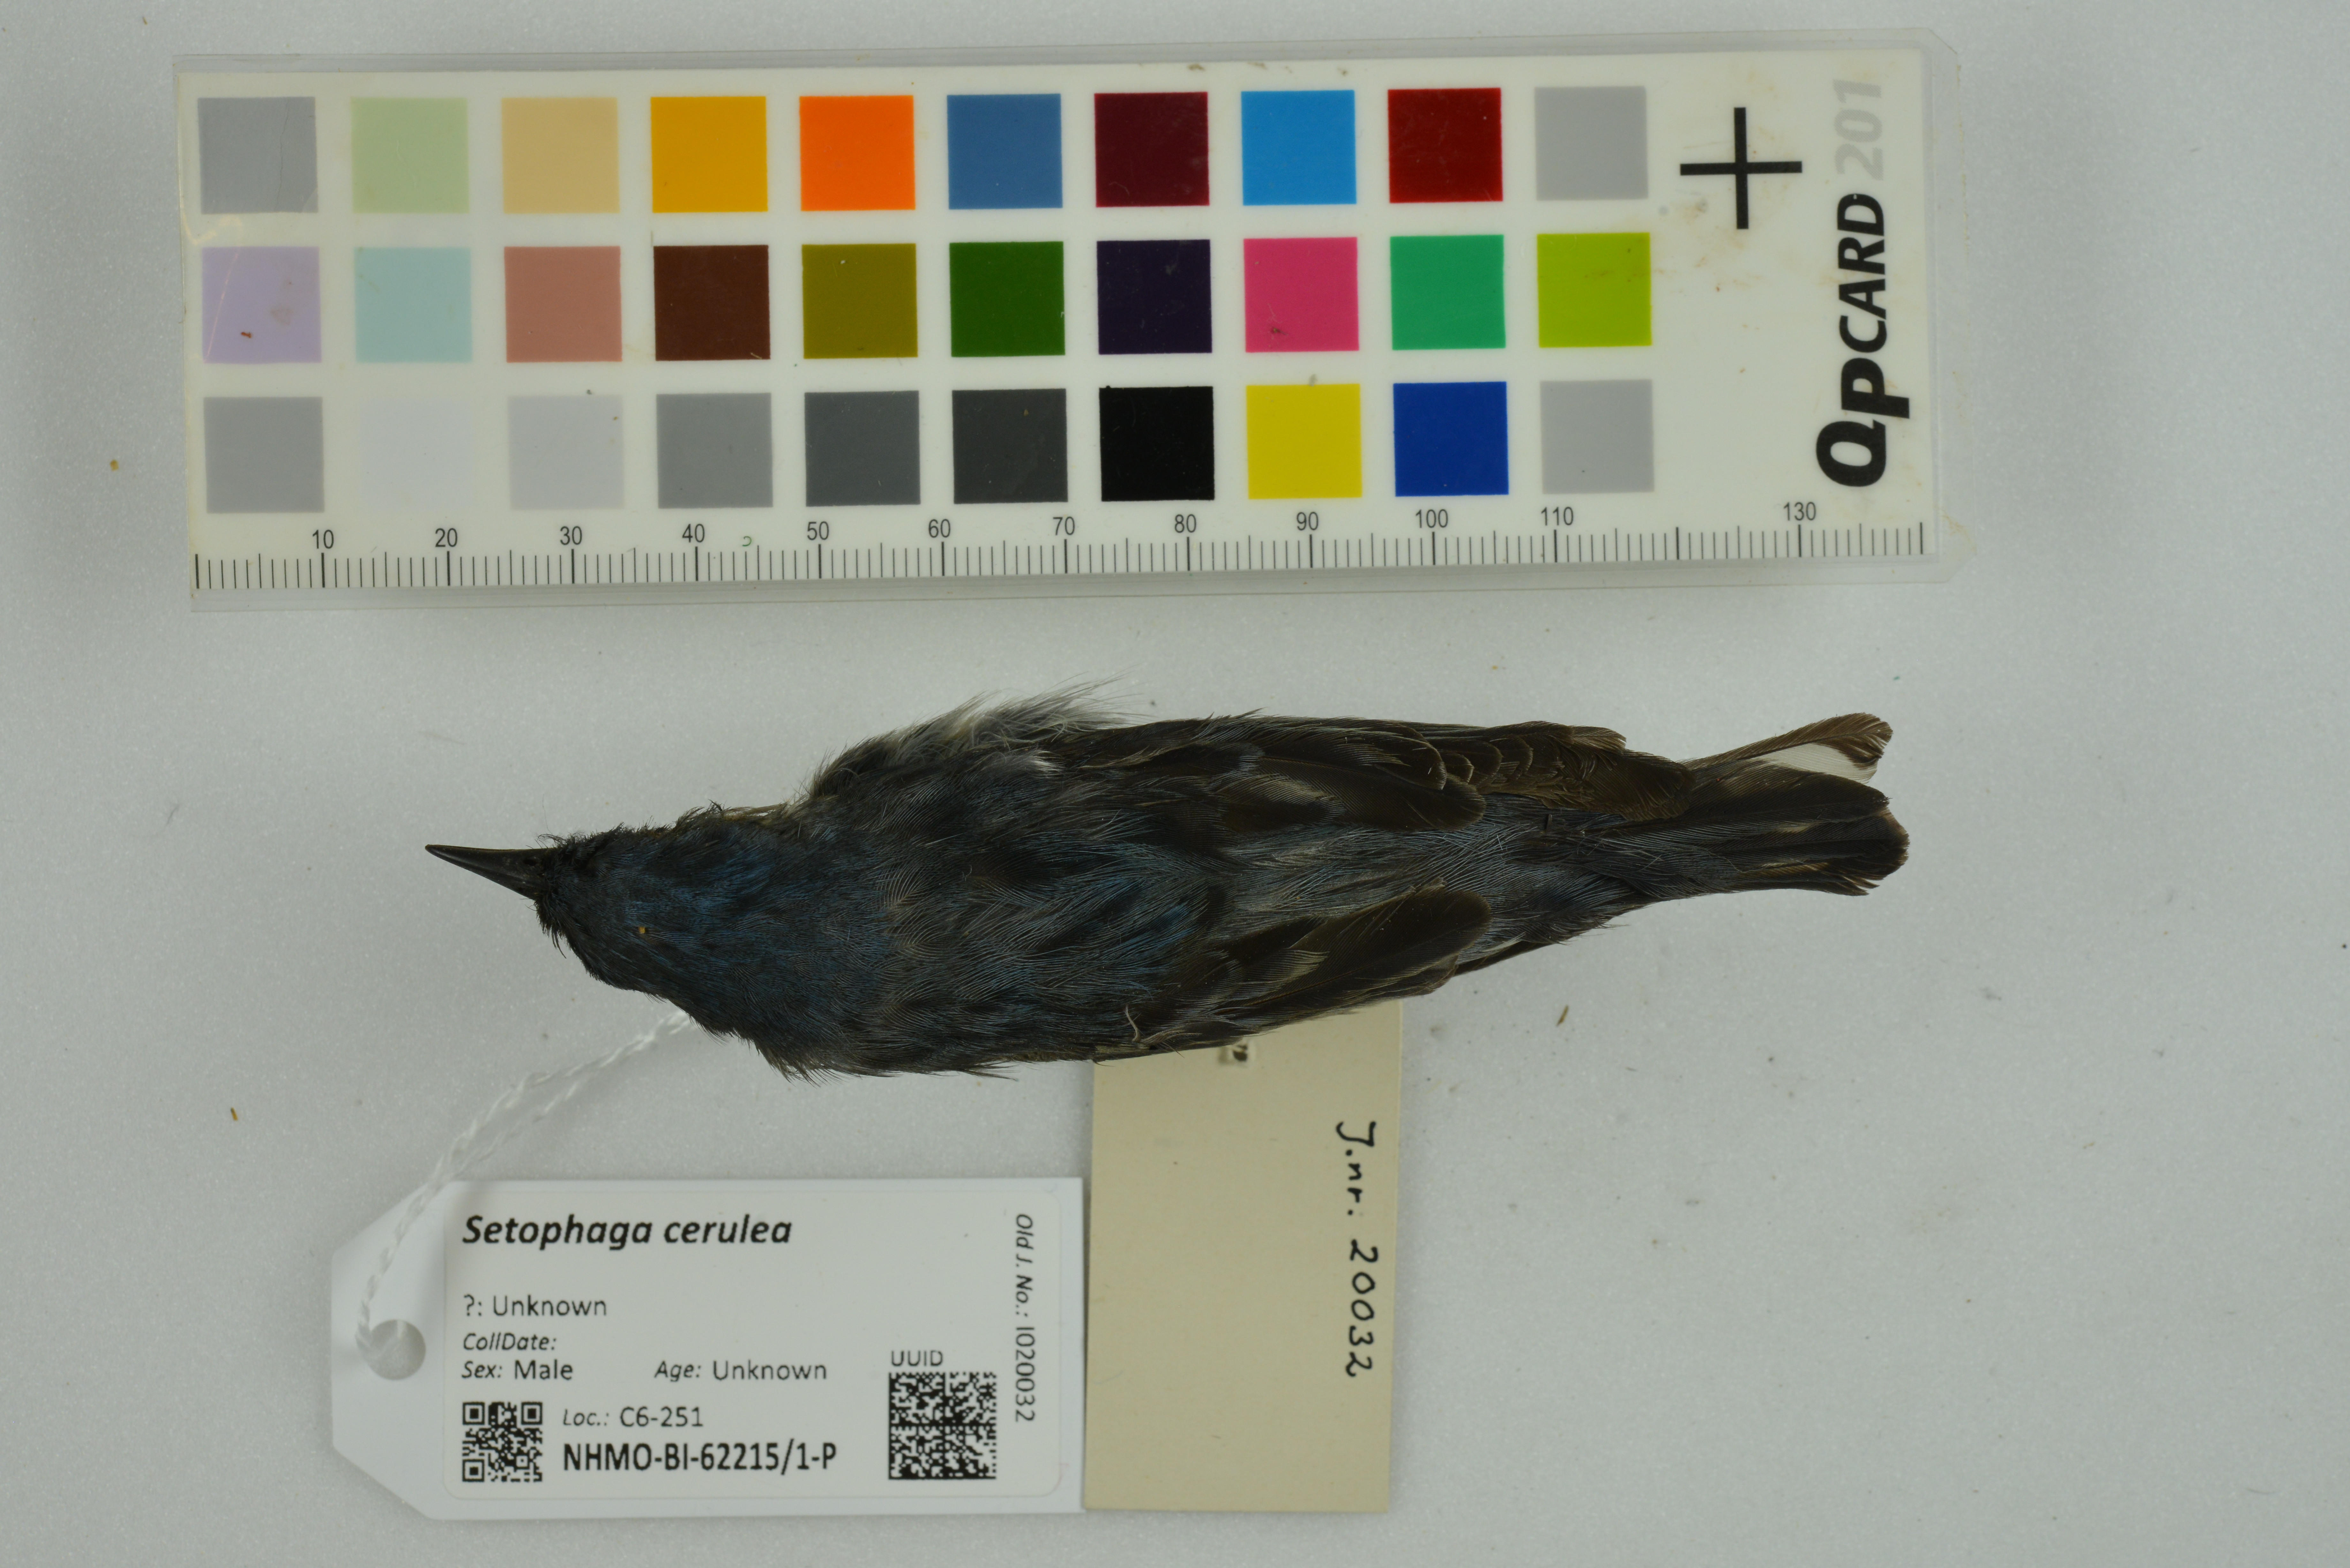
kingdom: Animalia
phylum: Chordata
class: Aves
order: Passeriformes
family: Parulidae
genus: Setophaga
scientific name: Setophaga cerulea
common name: Cerulean warbler
